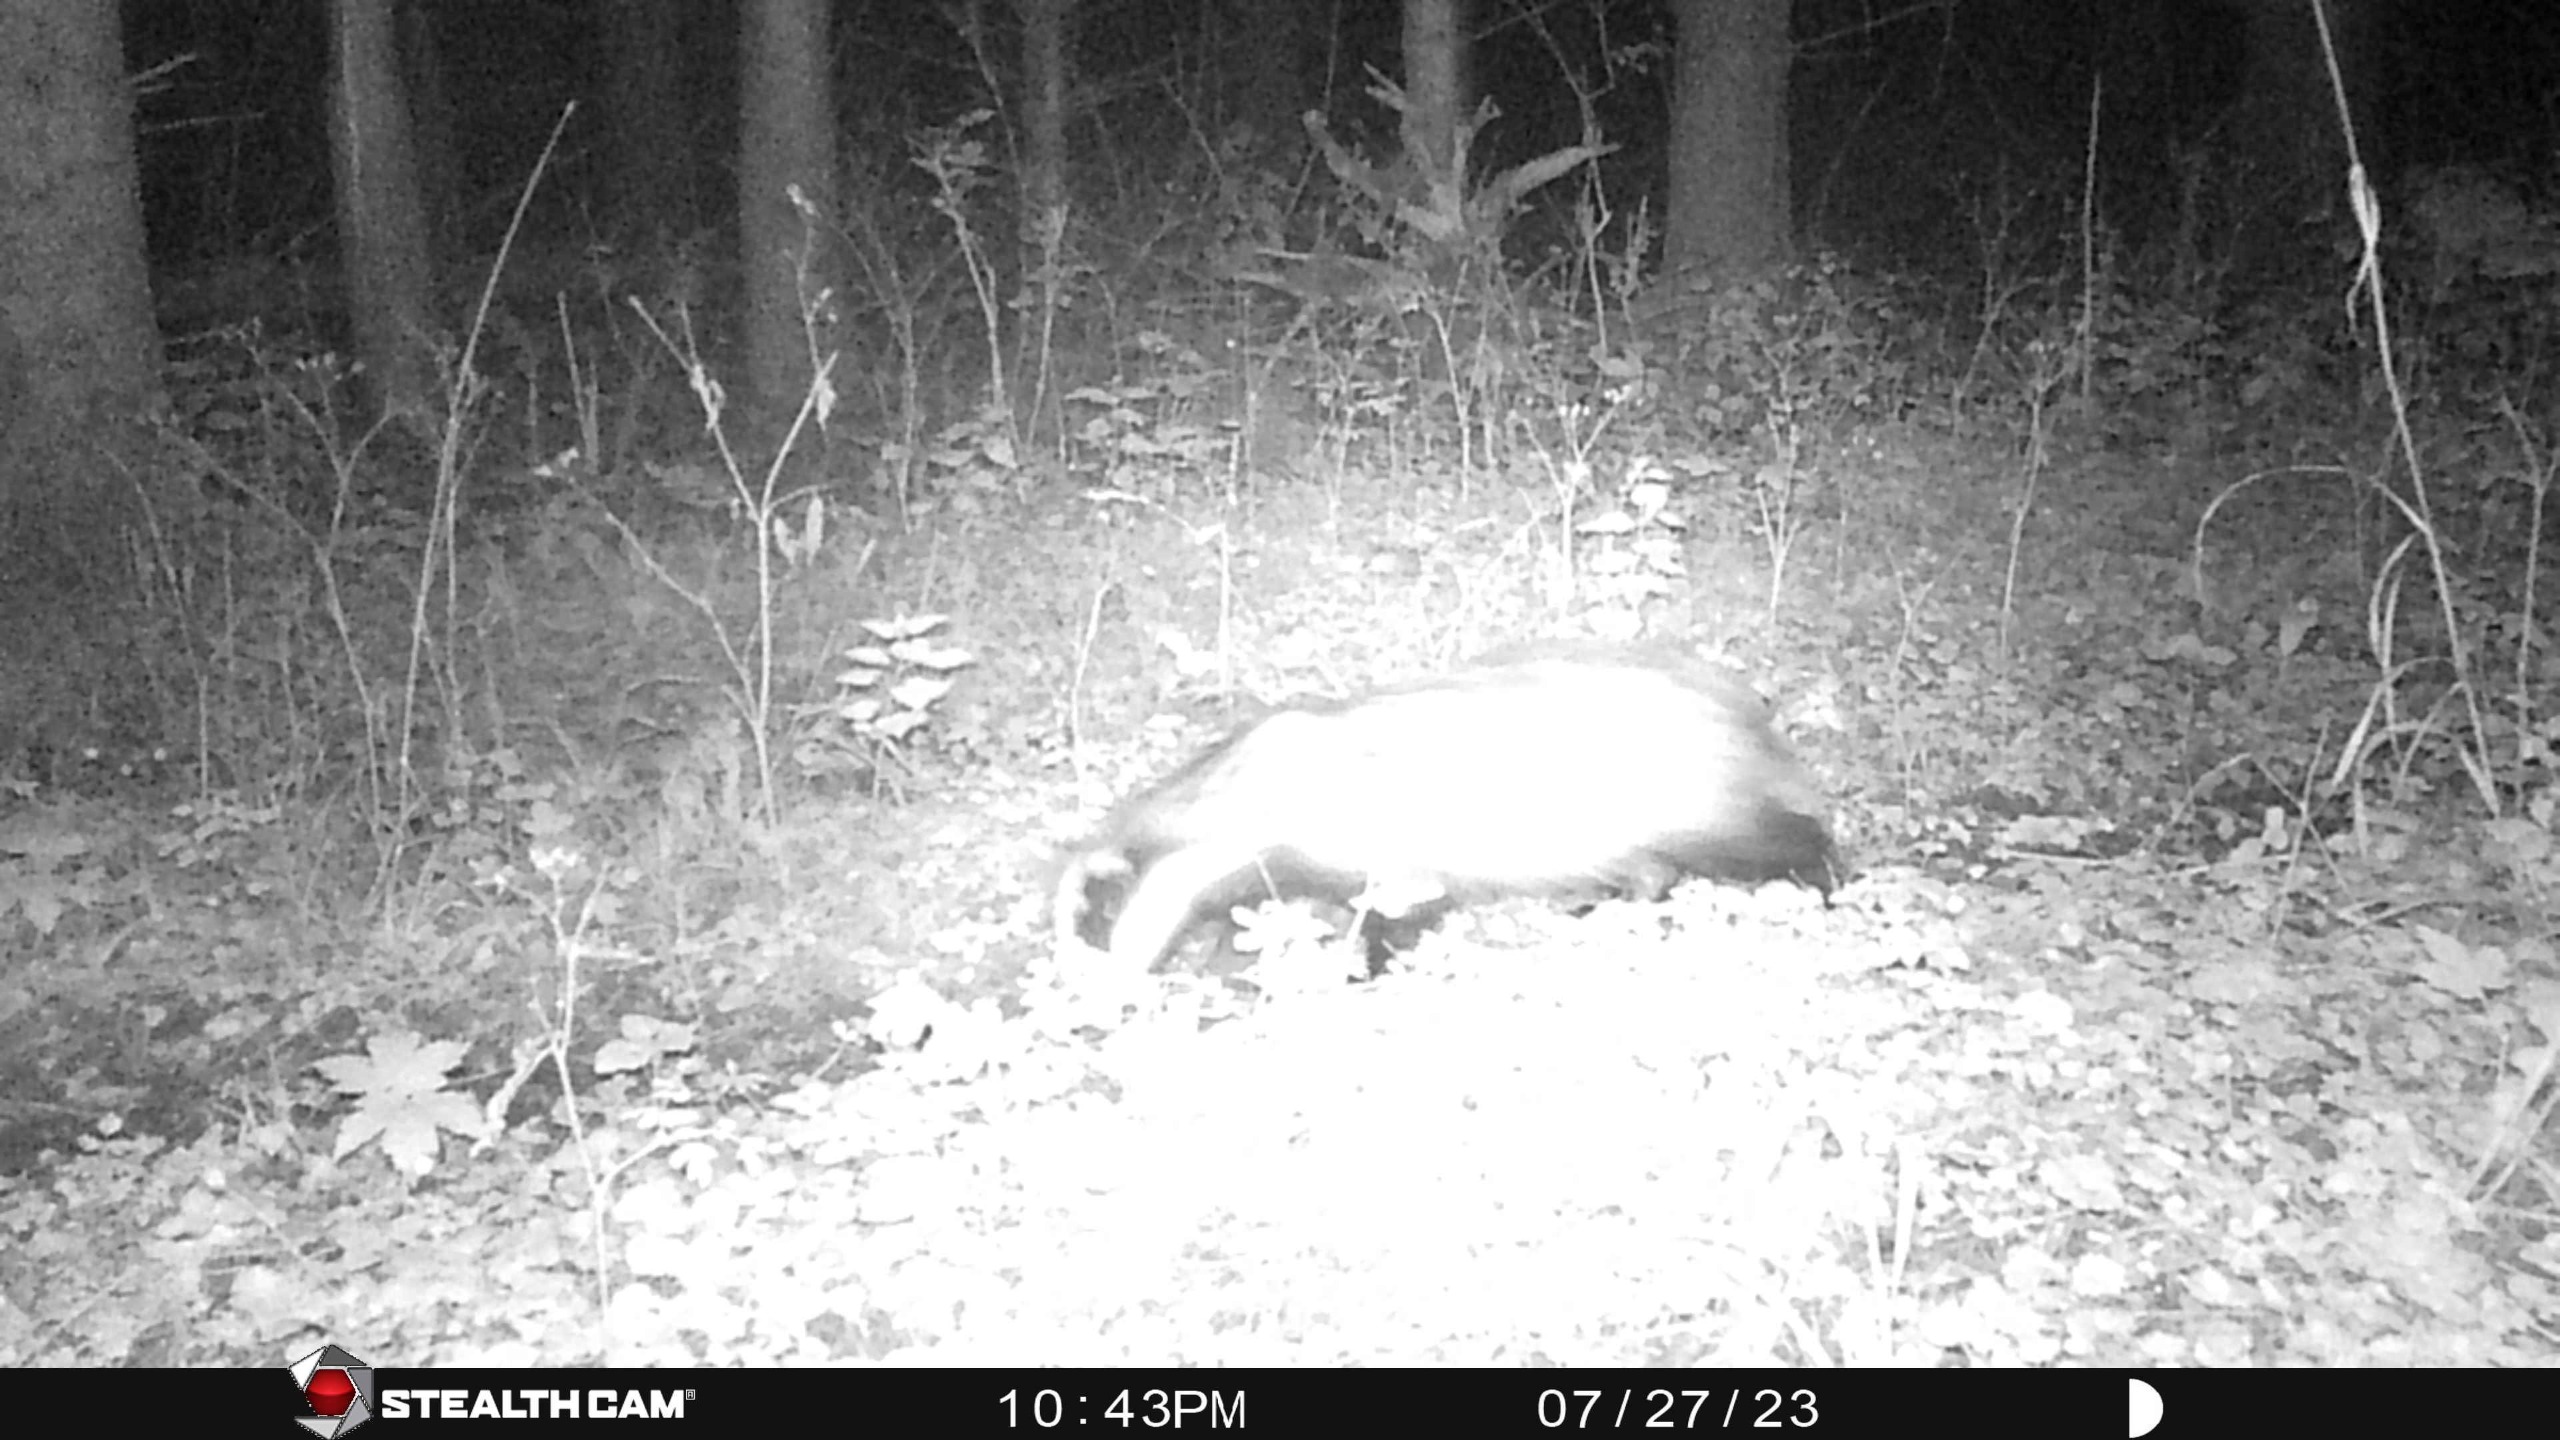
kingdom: Animalia
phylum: Chordata
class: Mammalia
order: Carnivora
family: Mustelidae
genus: Meles
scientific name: Meles meles
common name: Grævling
